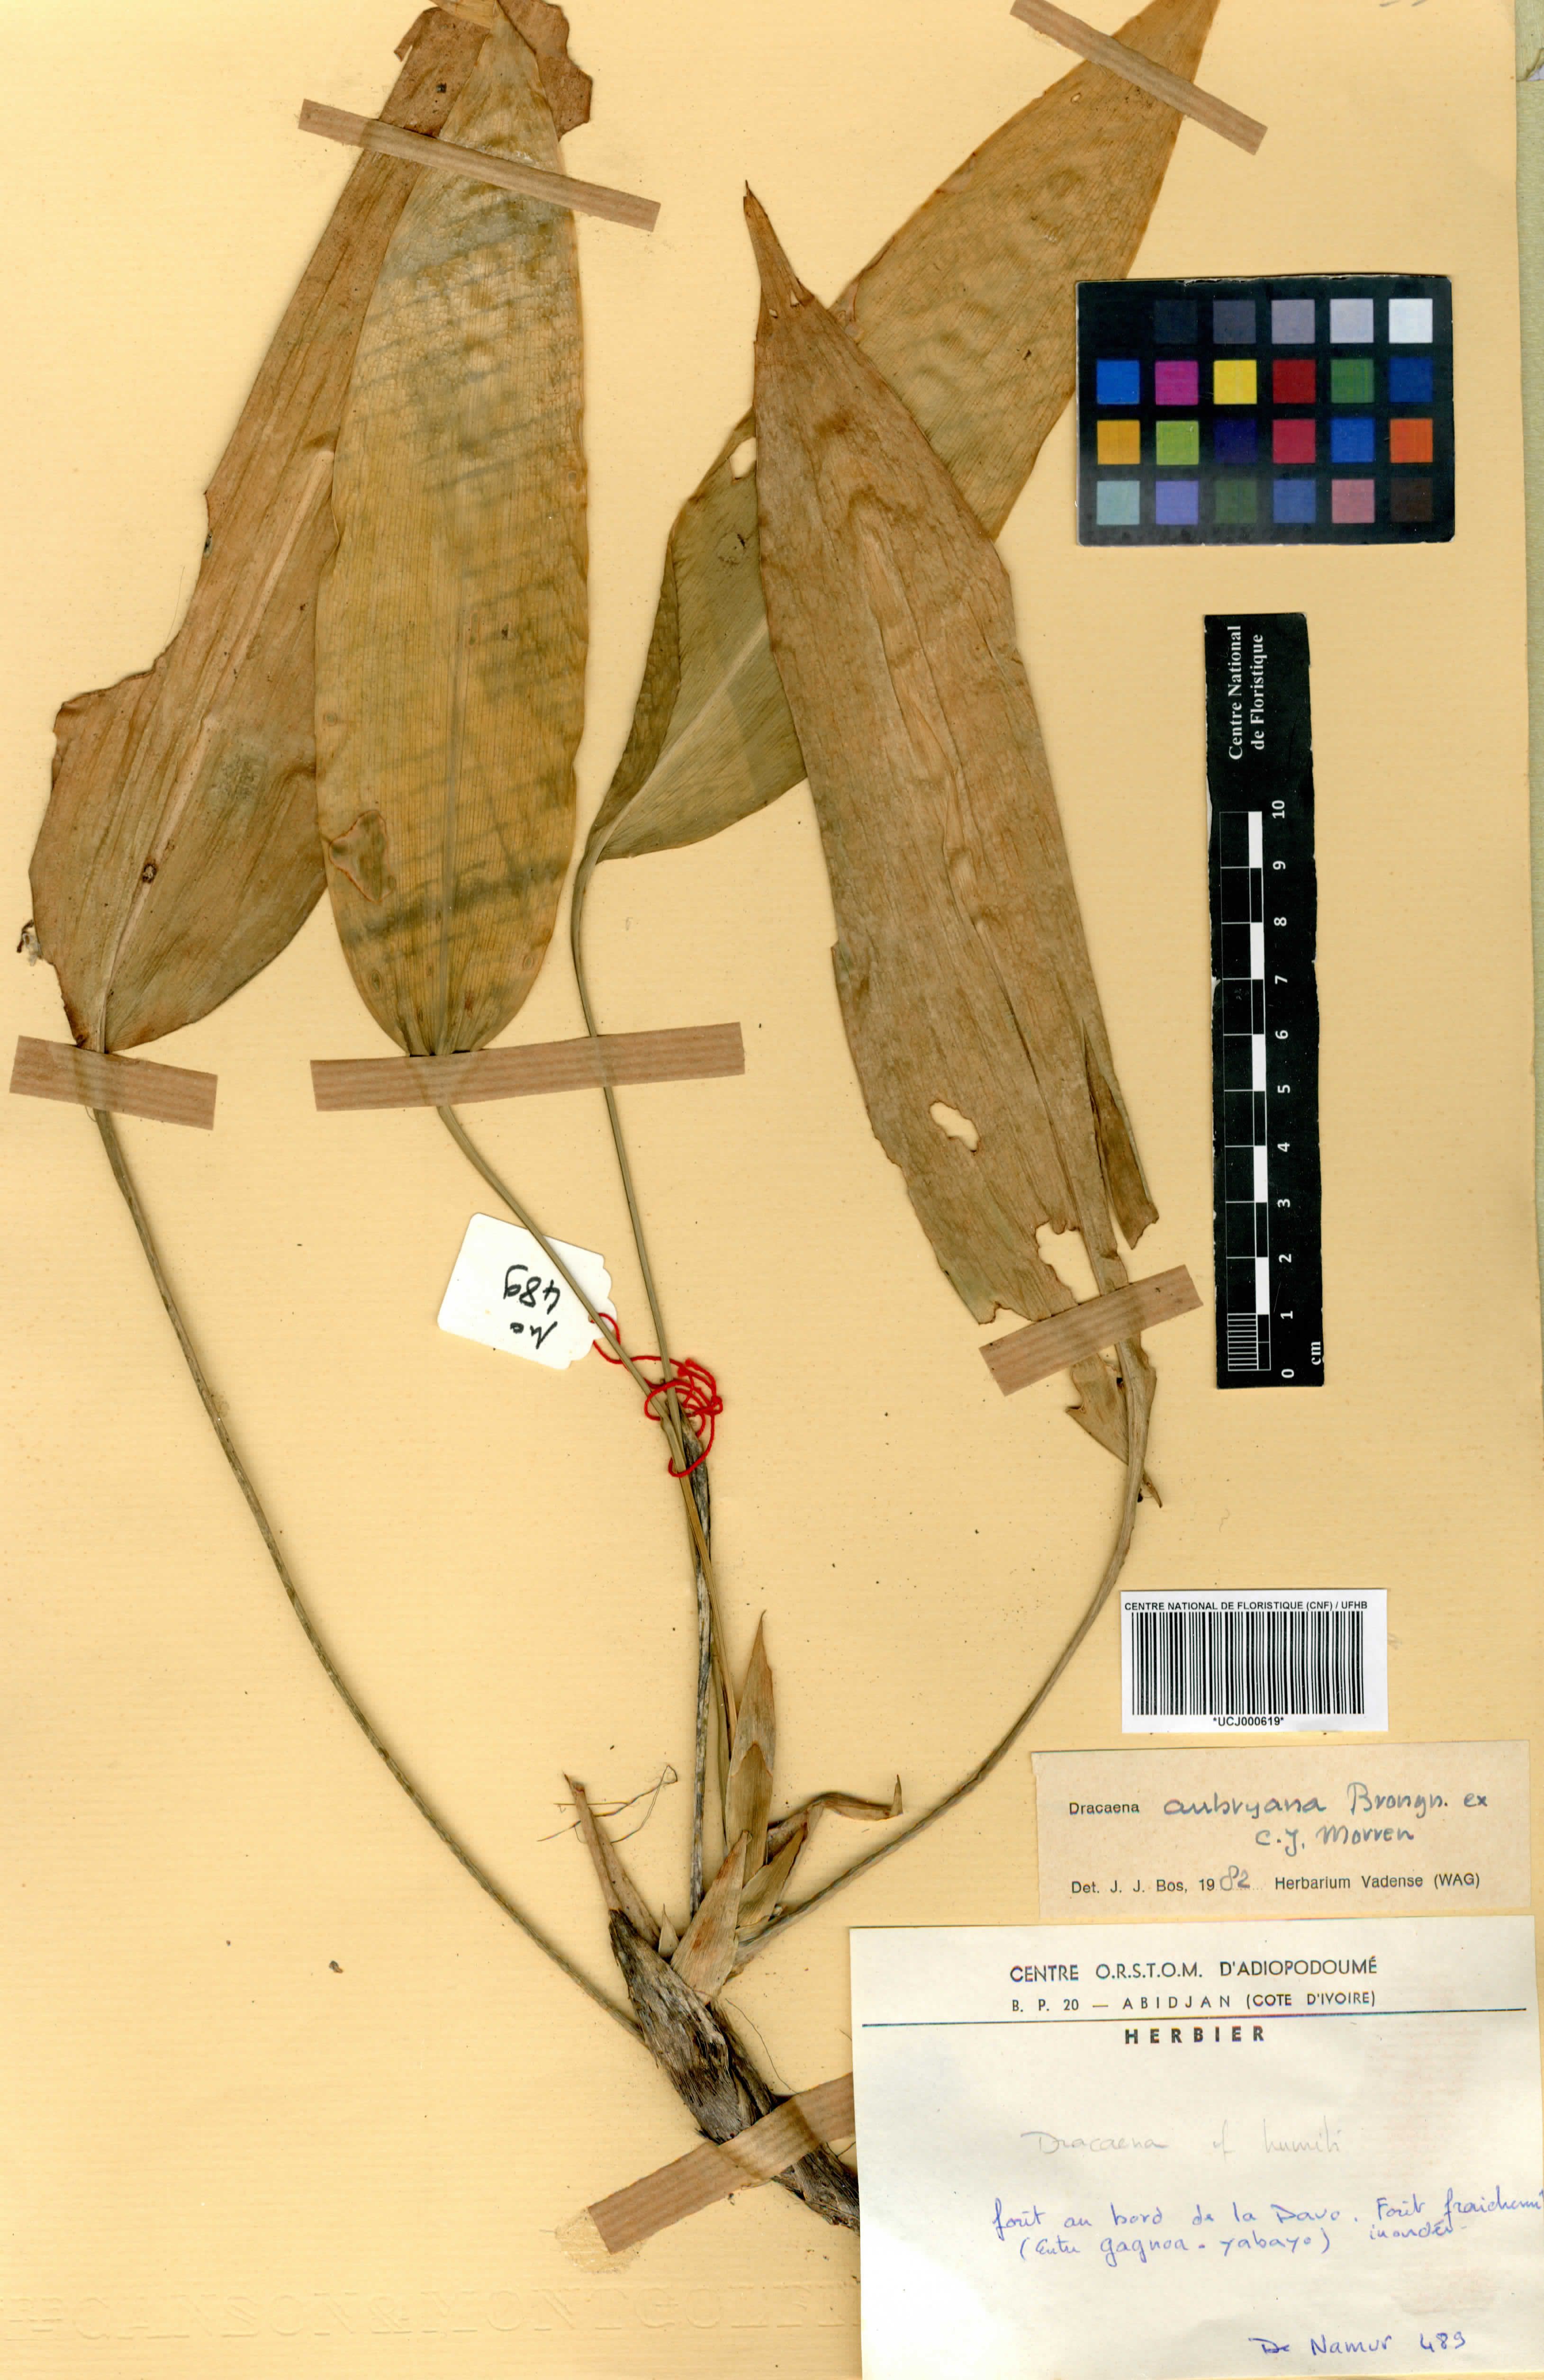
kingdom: Plantae
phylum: Tracheophyta
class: Liliopsida
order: Asparagales
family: Asparagaceae
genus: Dracaena
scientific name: Dracaena aubryana
